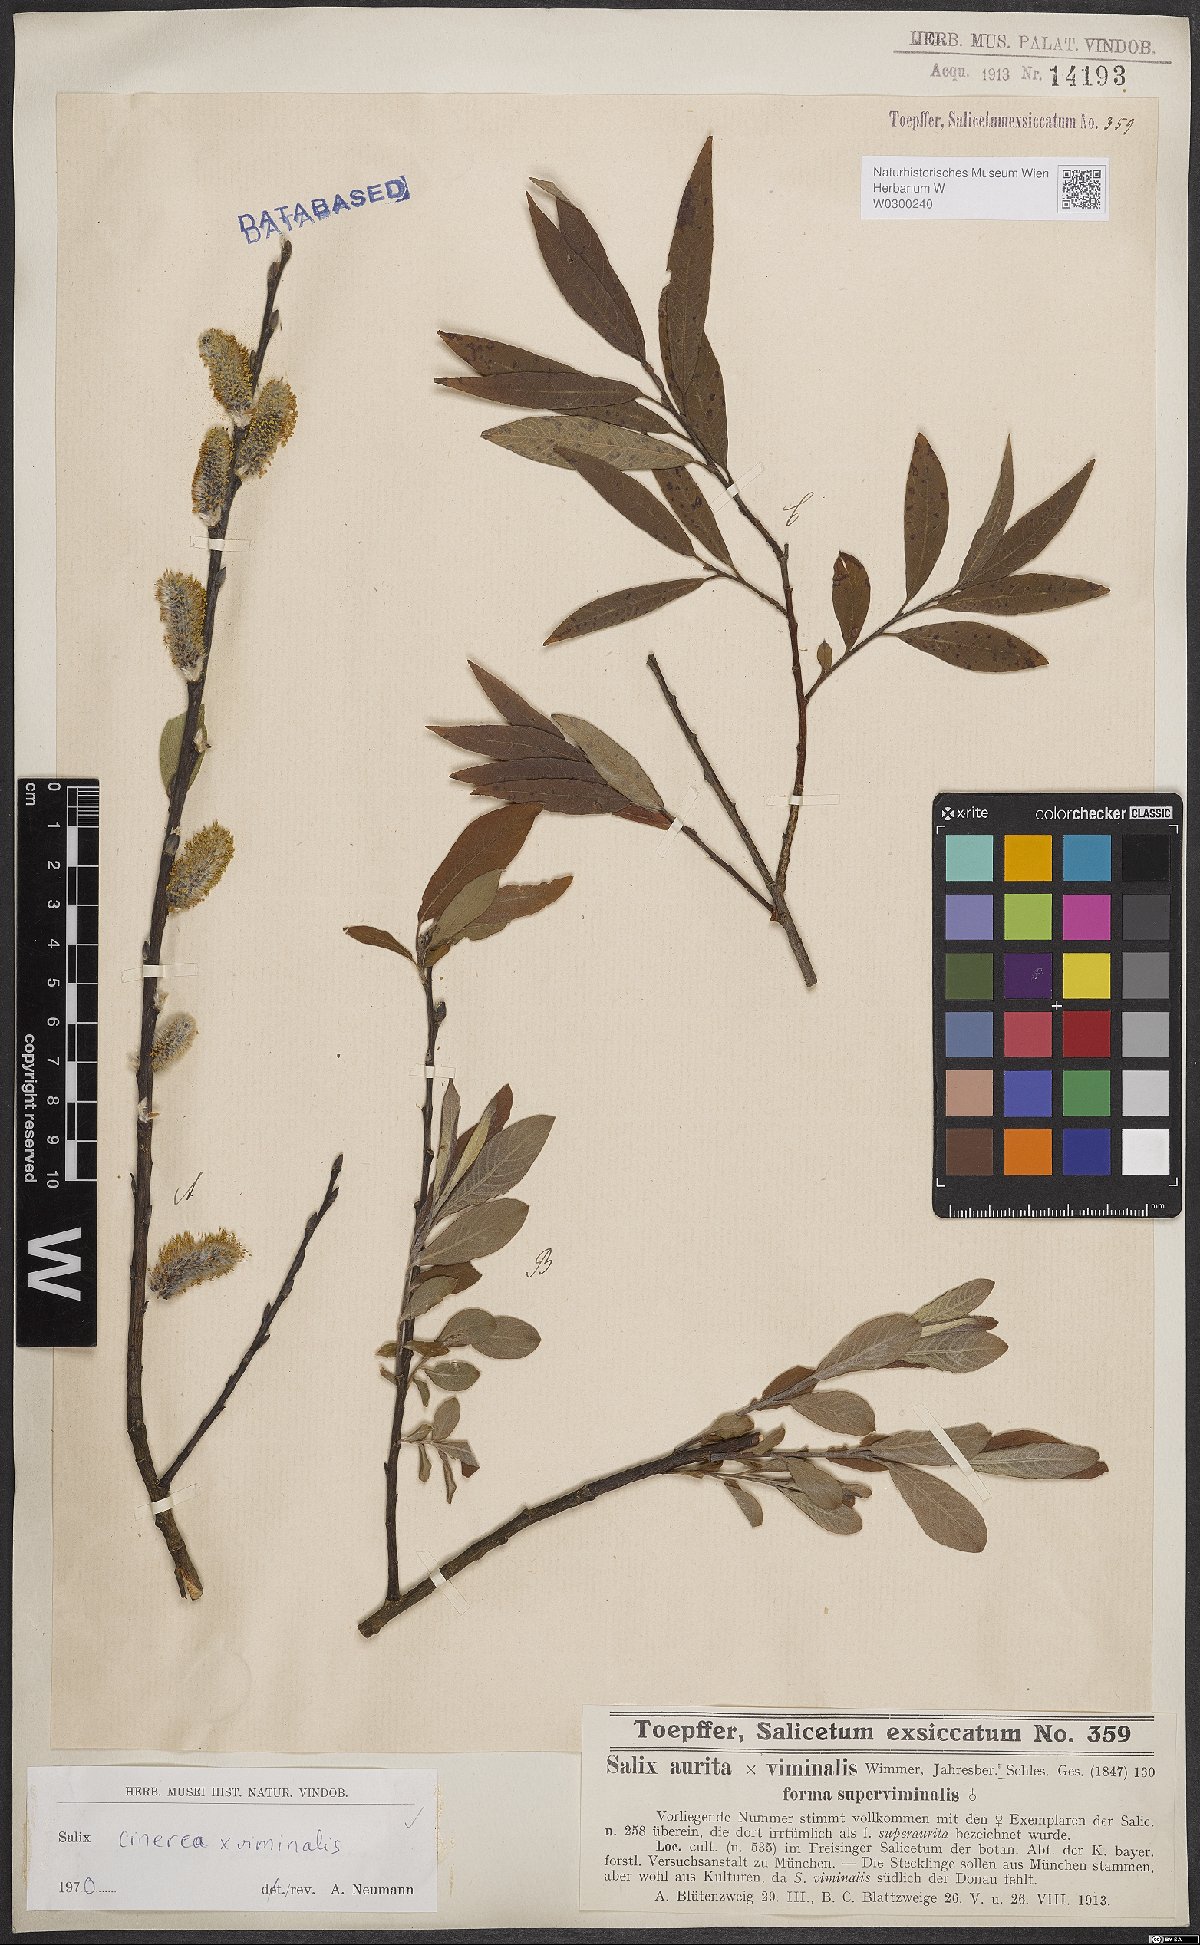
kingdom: Plantae
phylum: Tracheophyta
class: Magnoliopsida
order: Malpighiales
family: Salicaceae
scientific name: Salicaceae
